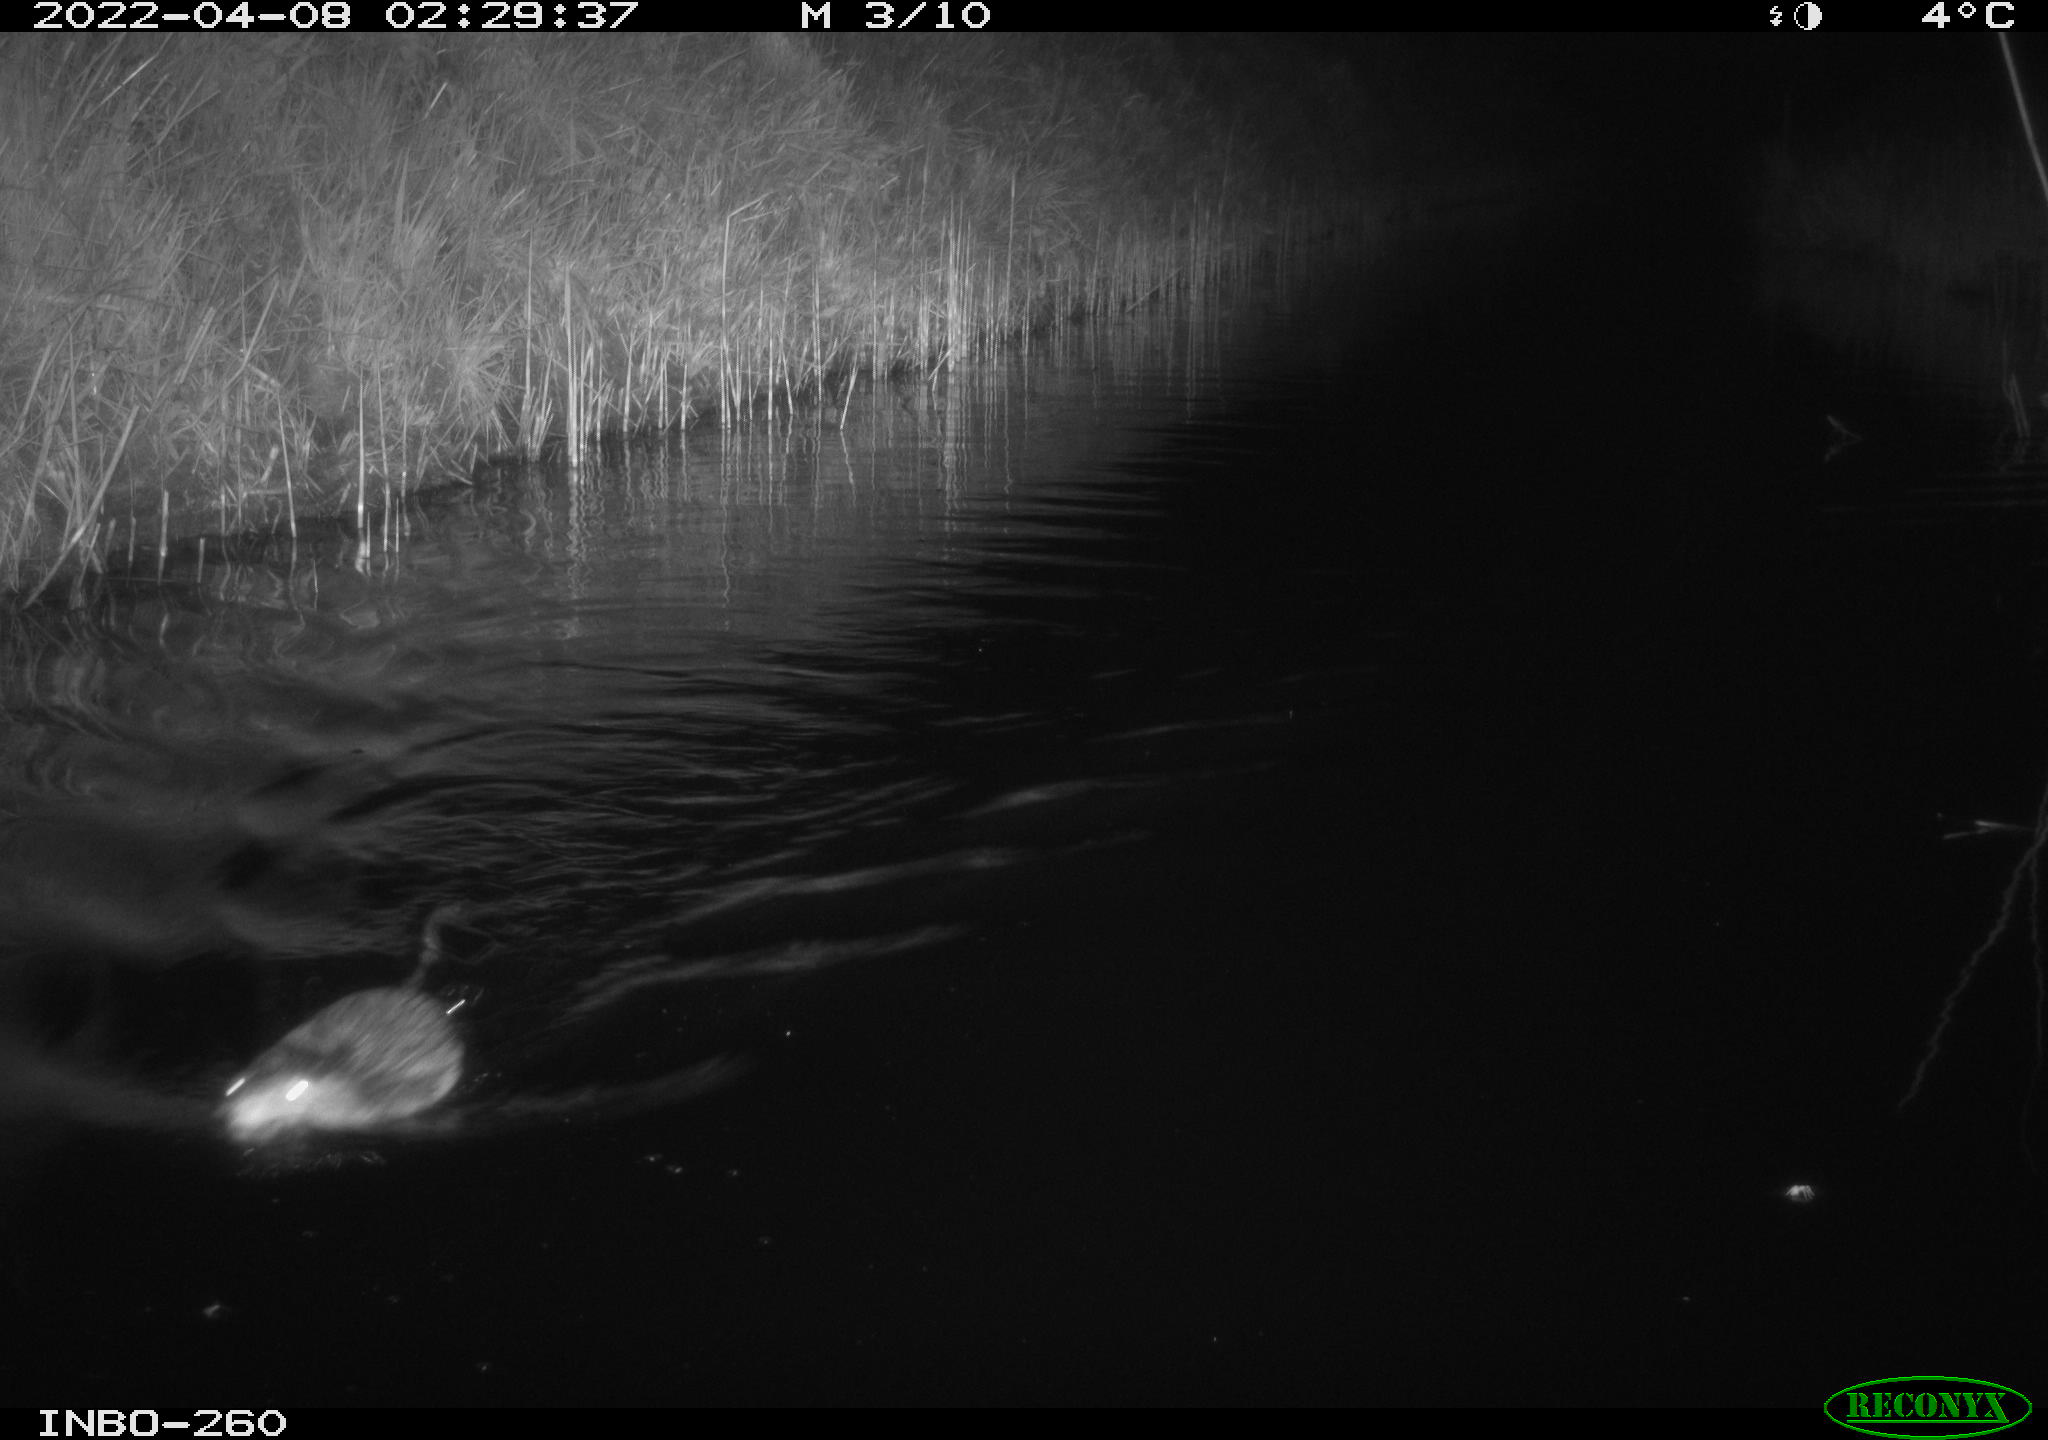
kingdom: Animalia
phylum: Chordata
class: Mammalia
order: Rodentia
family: Cricetidae
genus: Ondatra
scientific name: Ondatra zibethicus
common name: Muskrat
